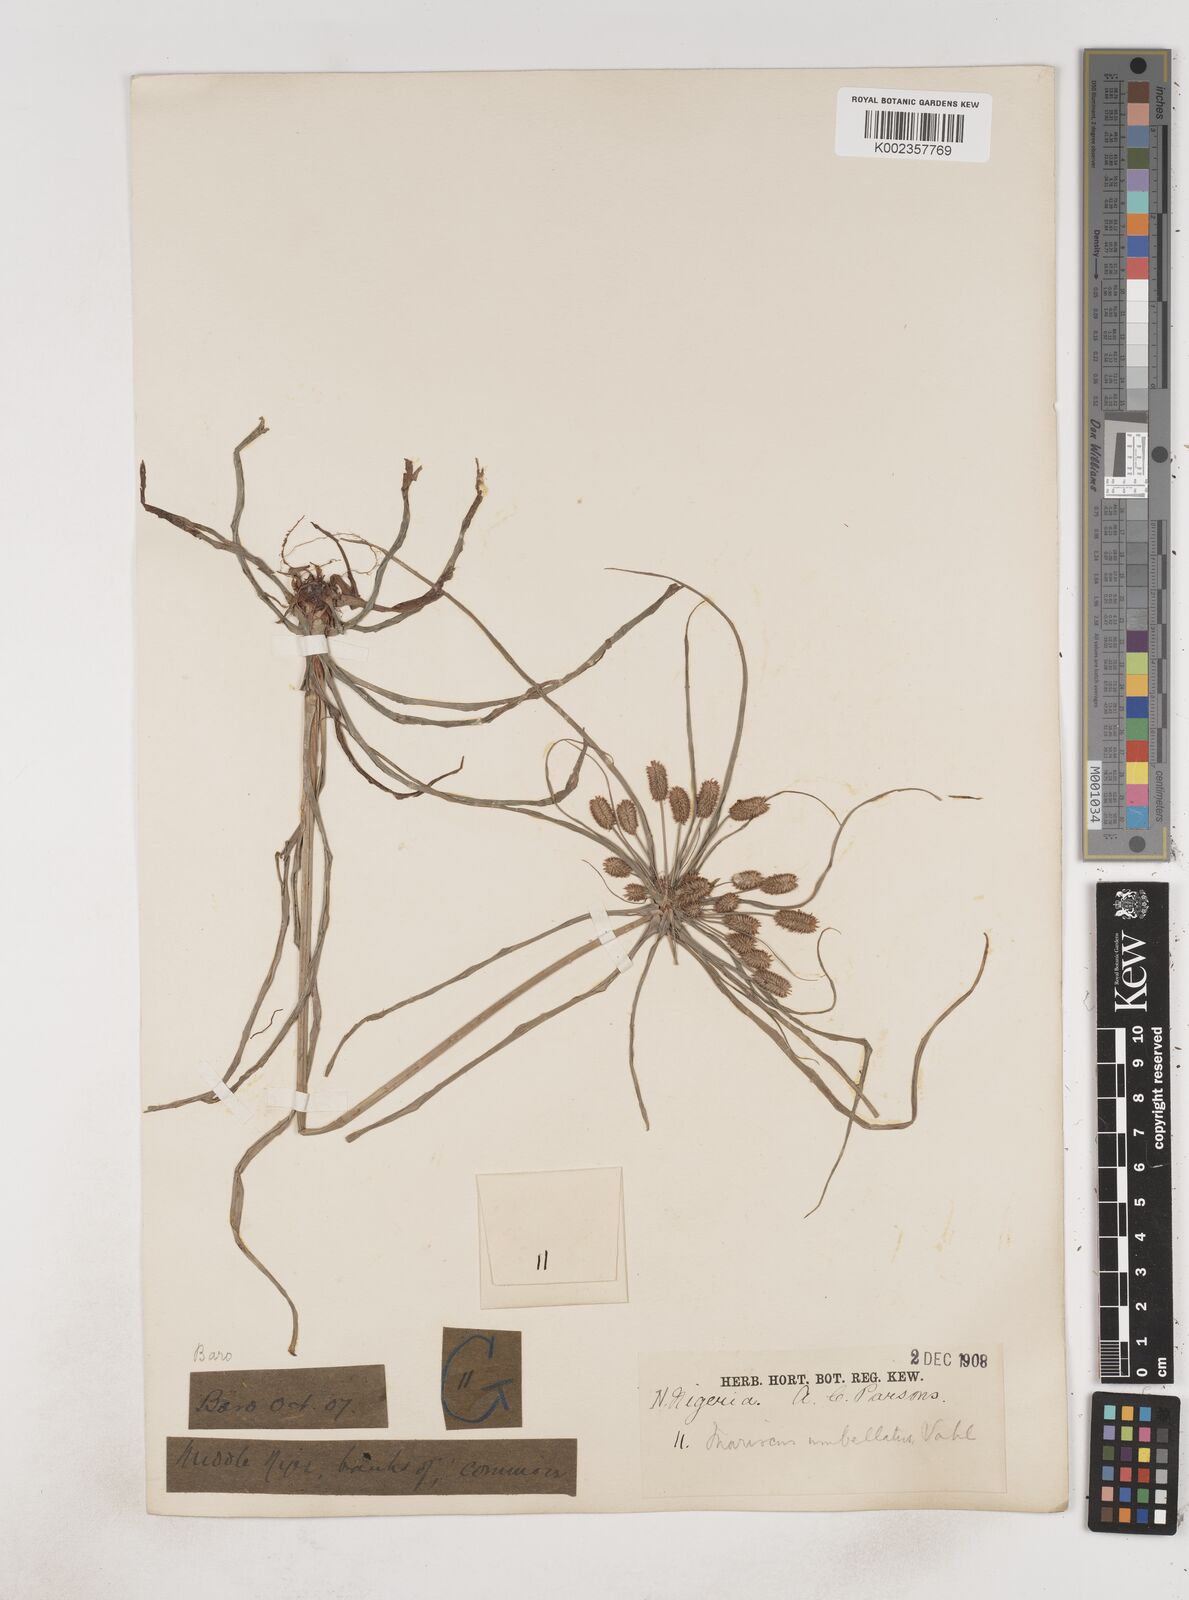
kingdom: Plantae
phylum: Tracheophyta
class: Liliopsida
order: Poales
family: Cyperaceae
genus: Cyperus
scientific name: Cyperus sublimis
